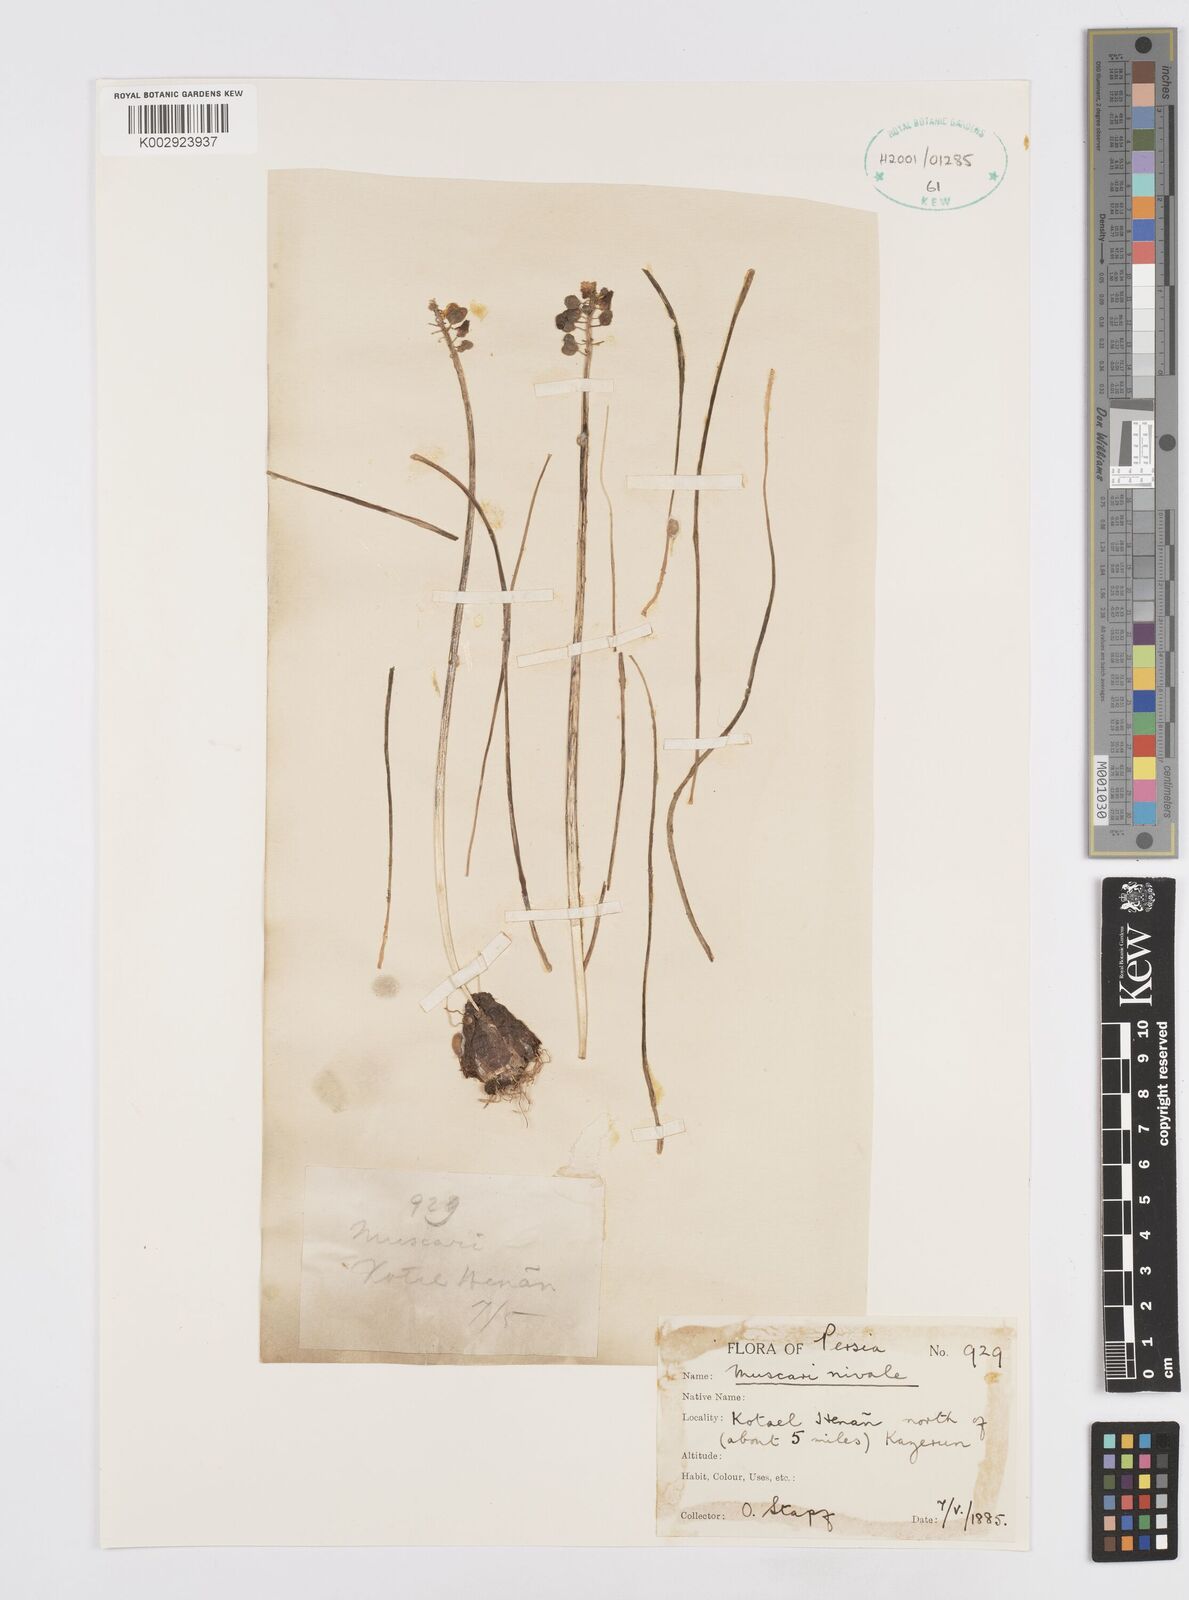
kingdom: Plantae
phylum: Tracheophyta
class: Liliopsida
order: Asparagales
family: Asparagaceae
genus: Muscari
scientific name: Muscari neglectum
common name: Grape-hyacinth
